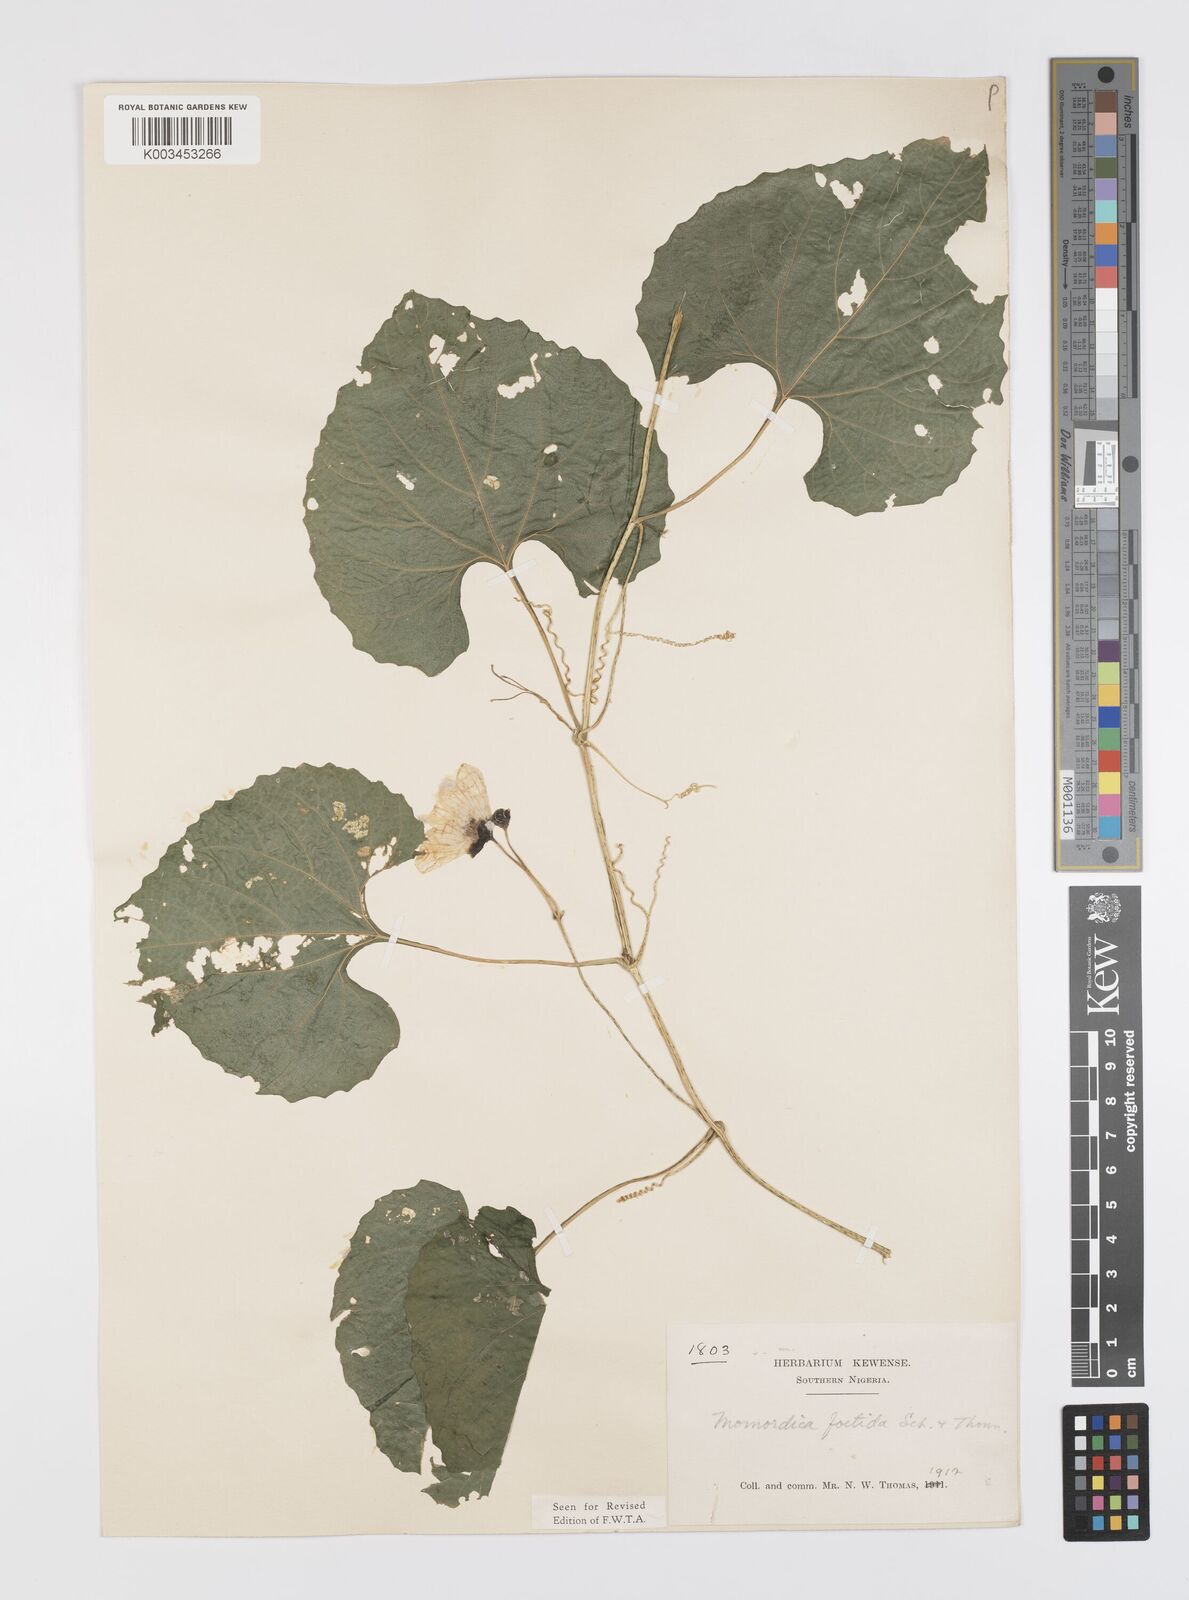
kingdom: Plantae
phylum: Tracheophyta
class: Magnoliopsida
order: Cucurbitales
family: Cucurbitaceae
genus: Momordica
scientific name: Momordica foetida
